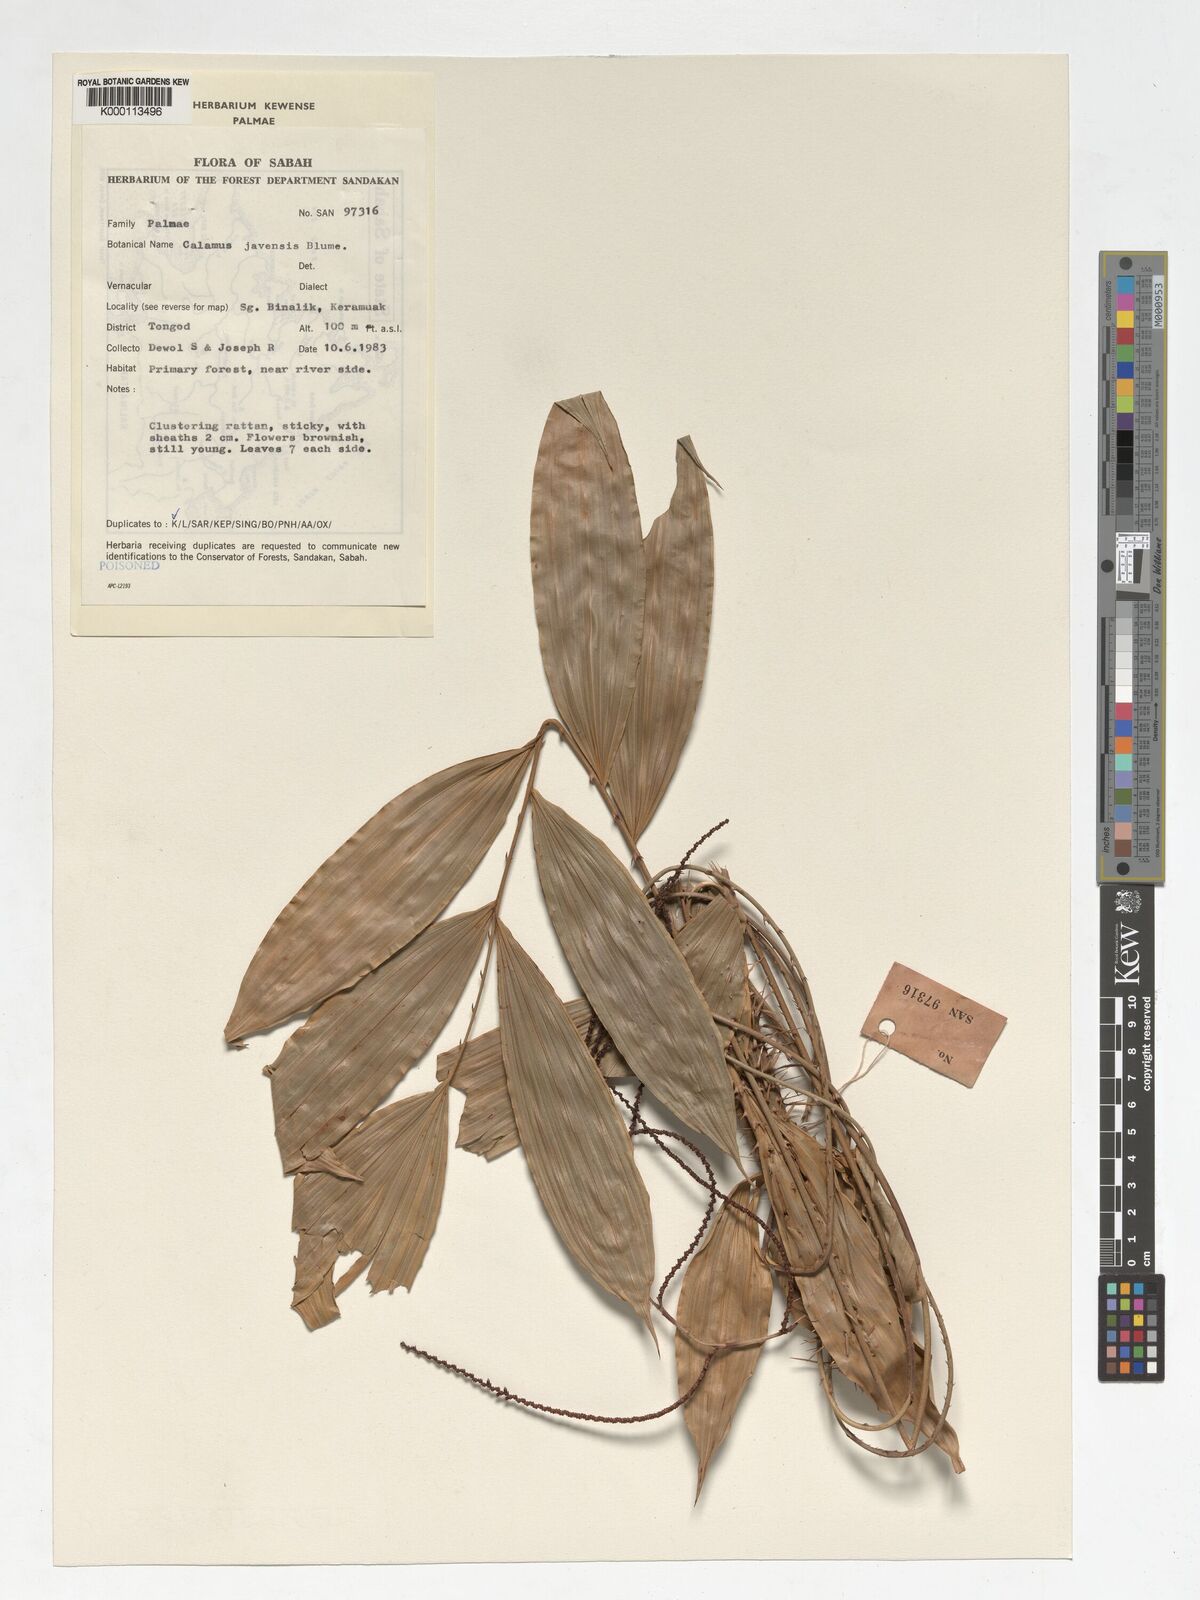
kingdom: Plantae
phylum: Tracheophyta
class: Liliopsida
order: Arecales
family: Arecaceae
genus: Calamus
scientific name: Calamus javensis
